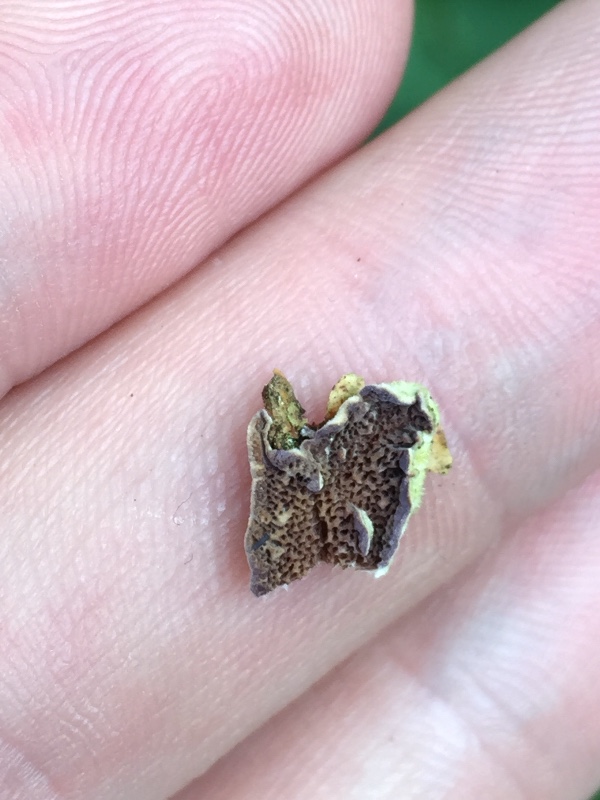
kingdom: Fungi
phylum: Basidiomycota
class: Agaricomycetes
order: Hymenochaetales
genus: Trichaptum
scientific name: Trichaptum abietinum
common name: almindelig violporesvamp
